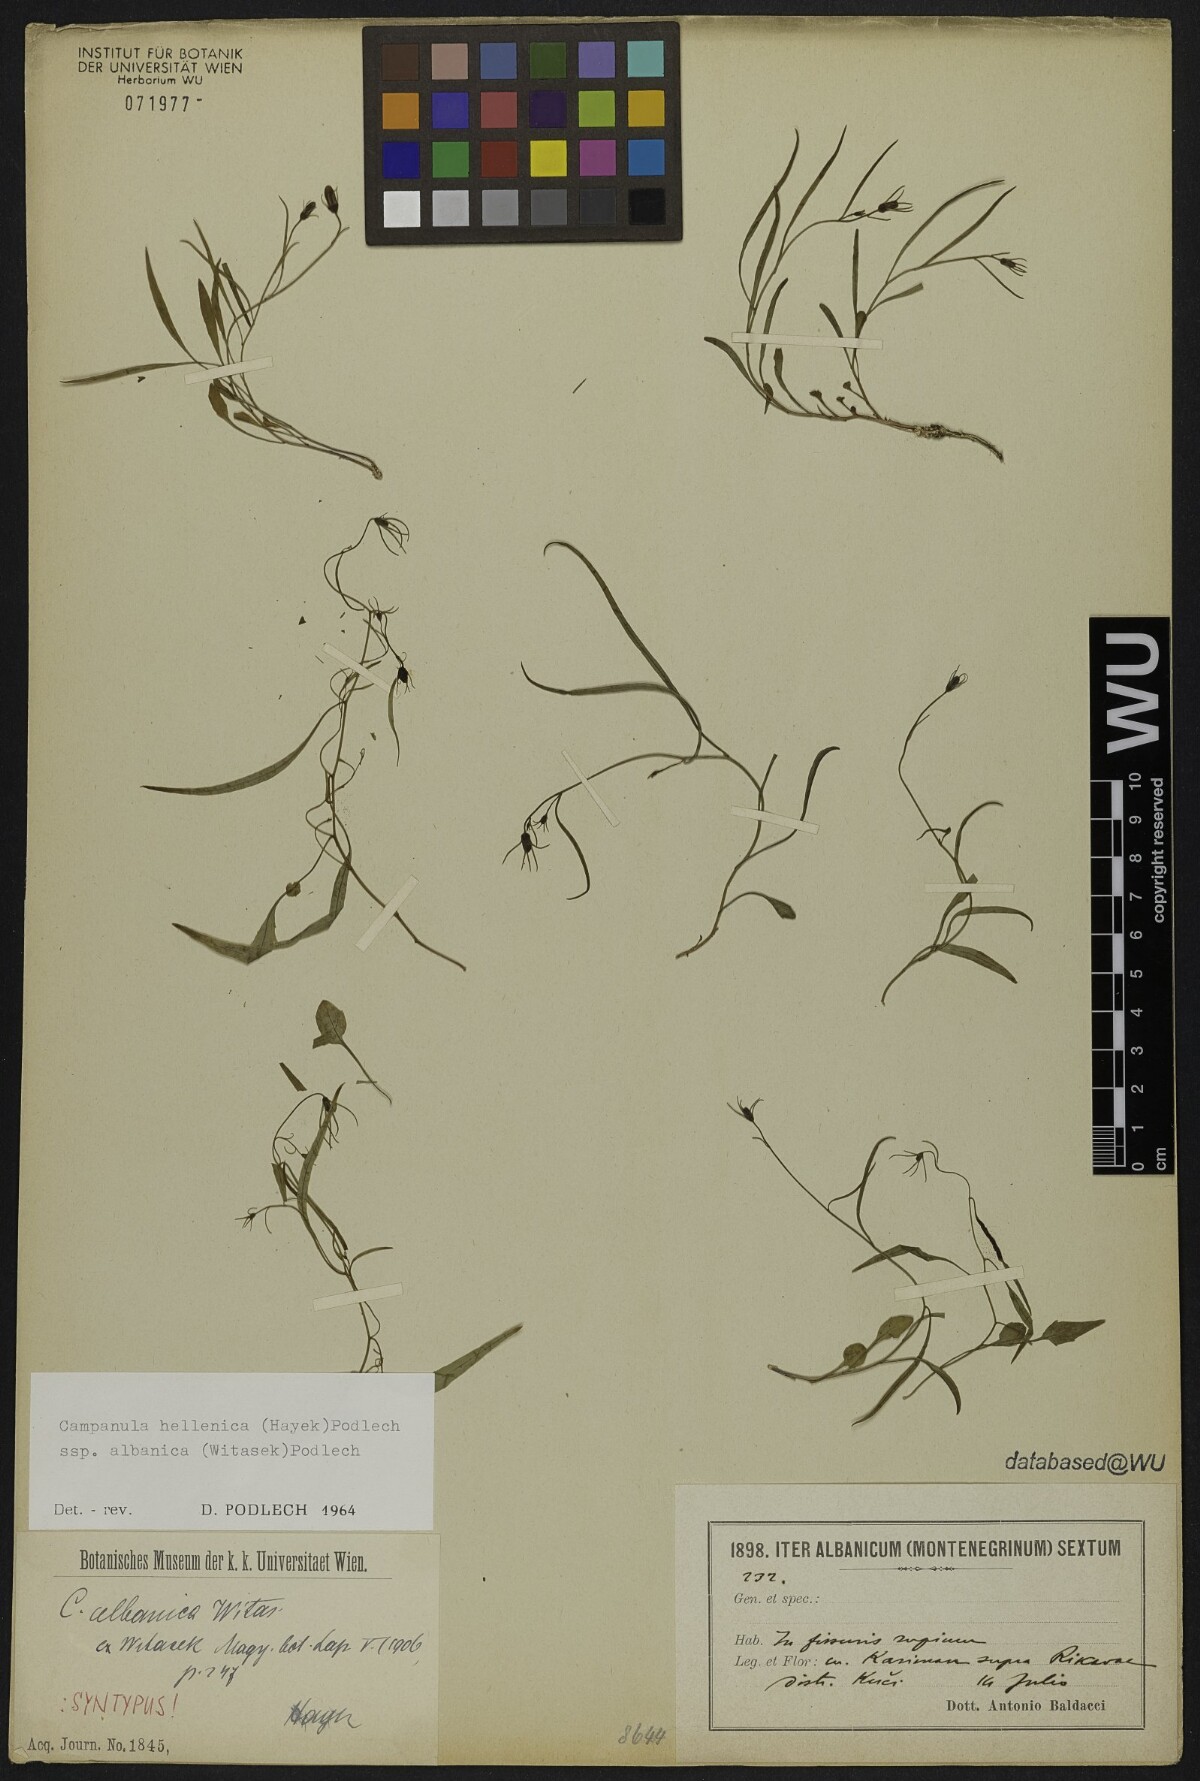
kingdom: Plantae
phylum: Tracheophyta
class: Magnoliopsida
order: Asterales
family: Campanulaceae
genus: Campanula
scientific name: Campanula albanica
